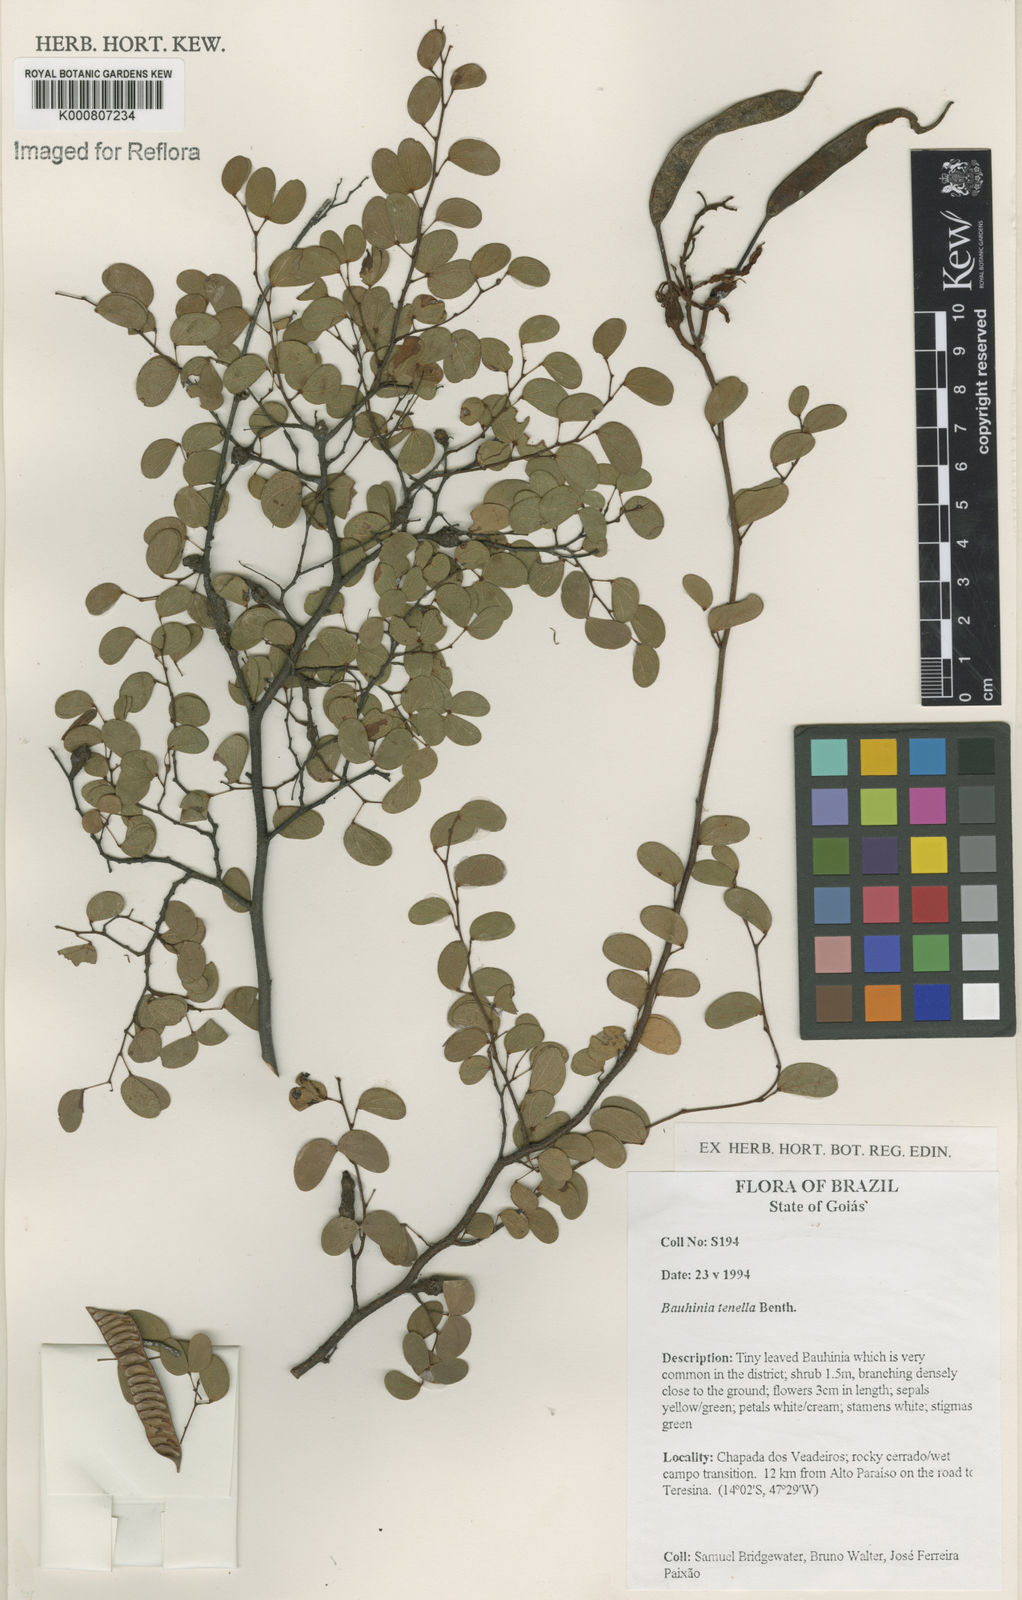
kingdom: Plantae
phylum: Tracheophyta
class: Magnoliopsida
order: Fabales
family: Fabaceae
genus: Bauhinia
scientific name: Bauhinia tenella
